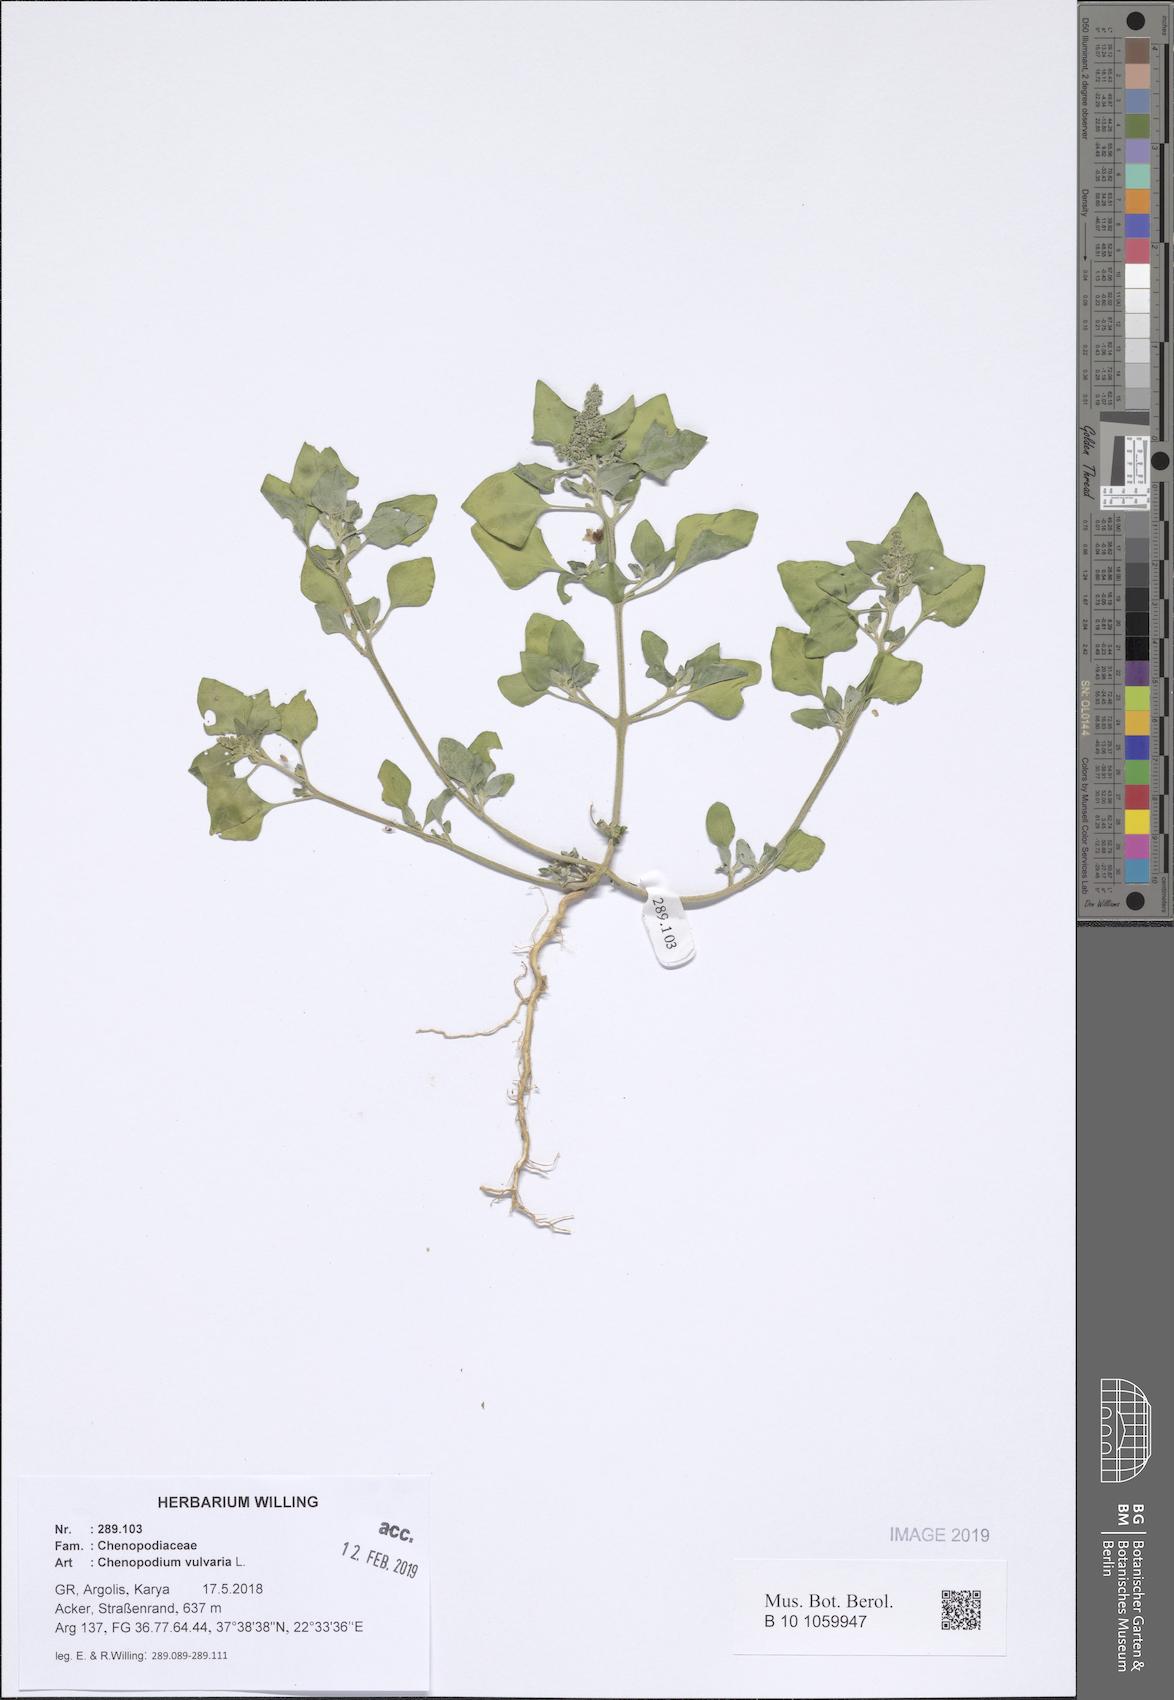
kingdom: Plantae
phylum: Tracheophyta
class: Magnoliopsida
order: Caryophyllales
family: Amaranthaceae
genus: Chenopodium
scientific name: Chenopodium vulvaria
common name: Stinking goosefoot
